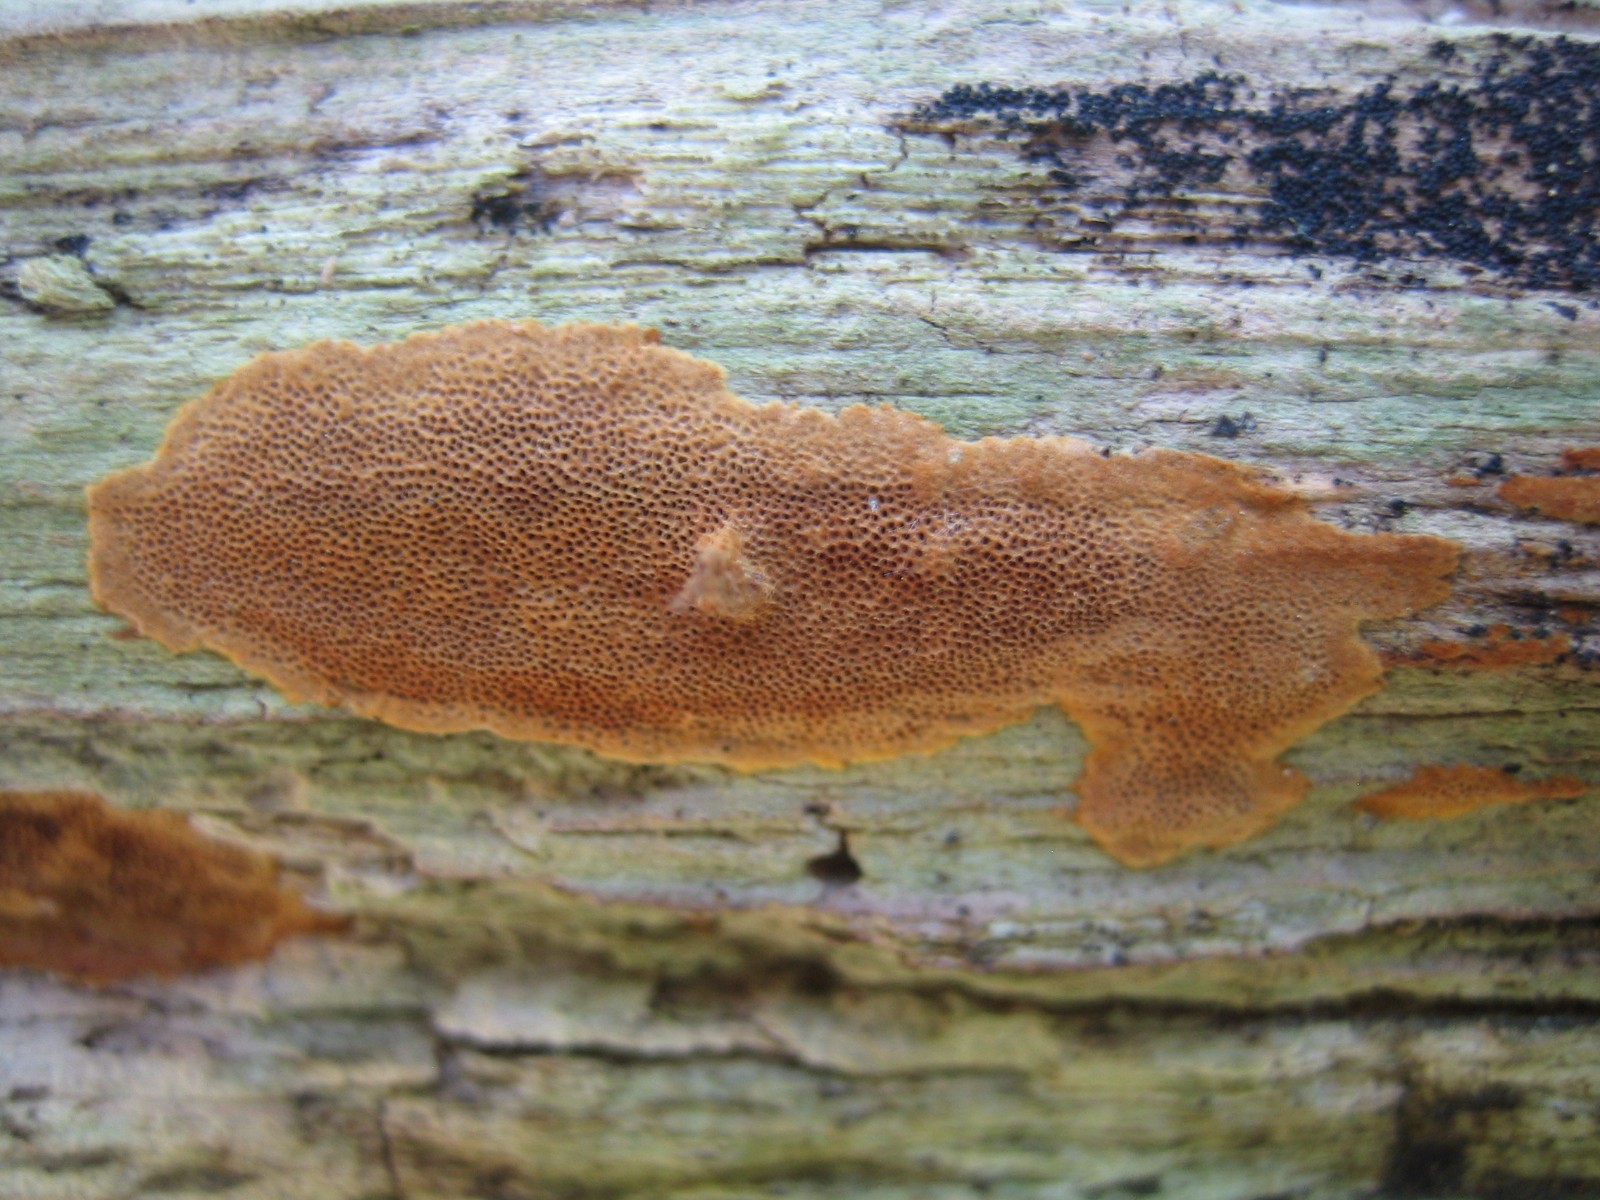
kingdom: Fungi
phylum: Basidiomycota
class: Agaricomycetes
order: Hymenochaetales
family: Hymenochaetaceae
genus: Fuscoporia
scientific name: Fuscoporia ferrea
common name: skorpe-ildporesvamp
